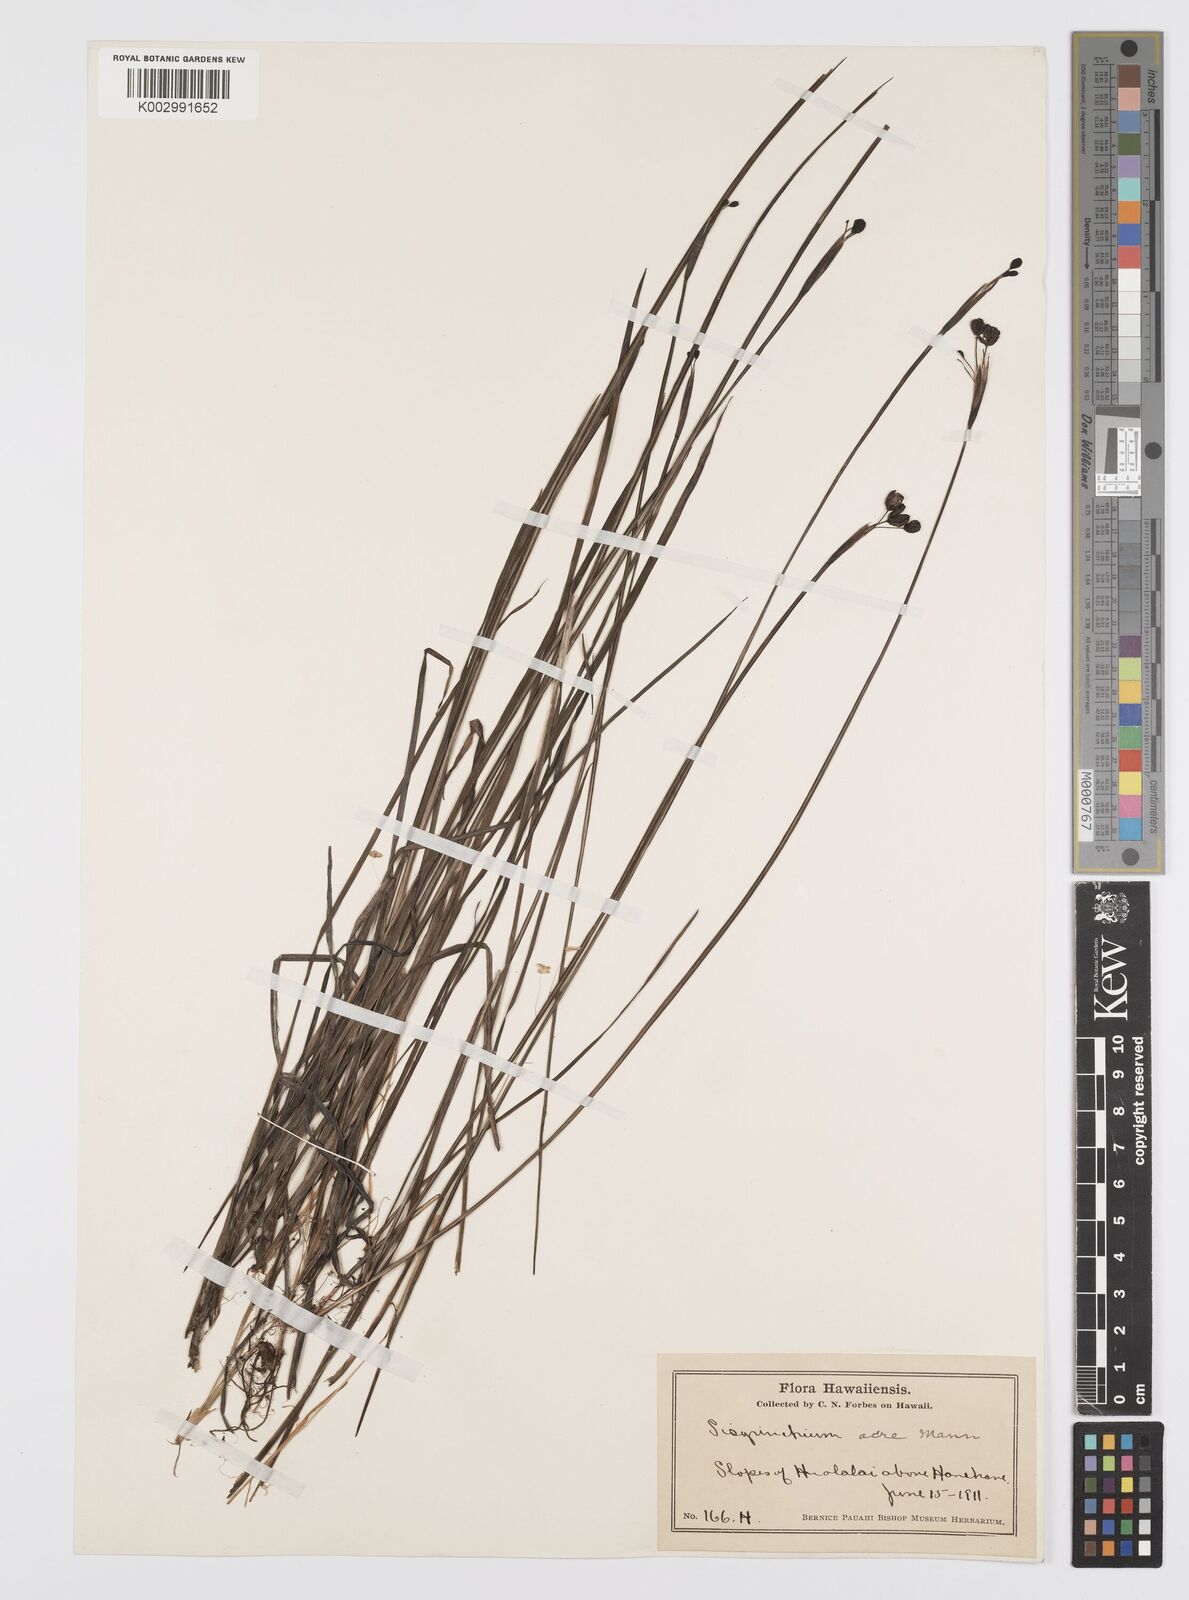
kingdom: Plantae
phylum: Tracheophyta
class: Liliopsida
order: Asparagales
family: Iridaceae
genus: Sisyrinchium
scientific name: Sisyrinchium acre
